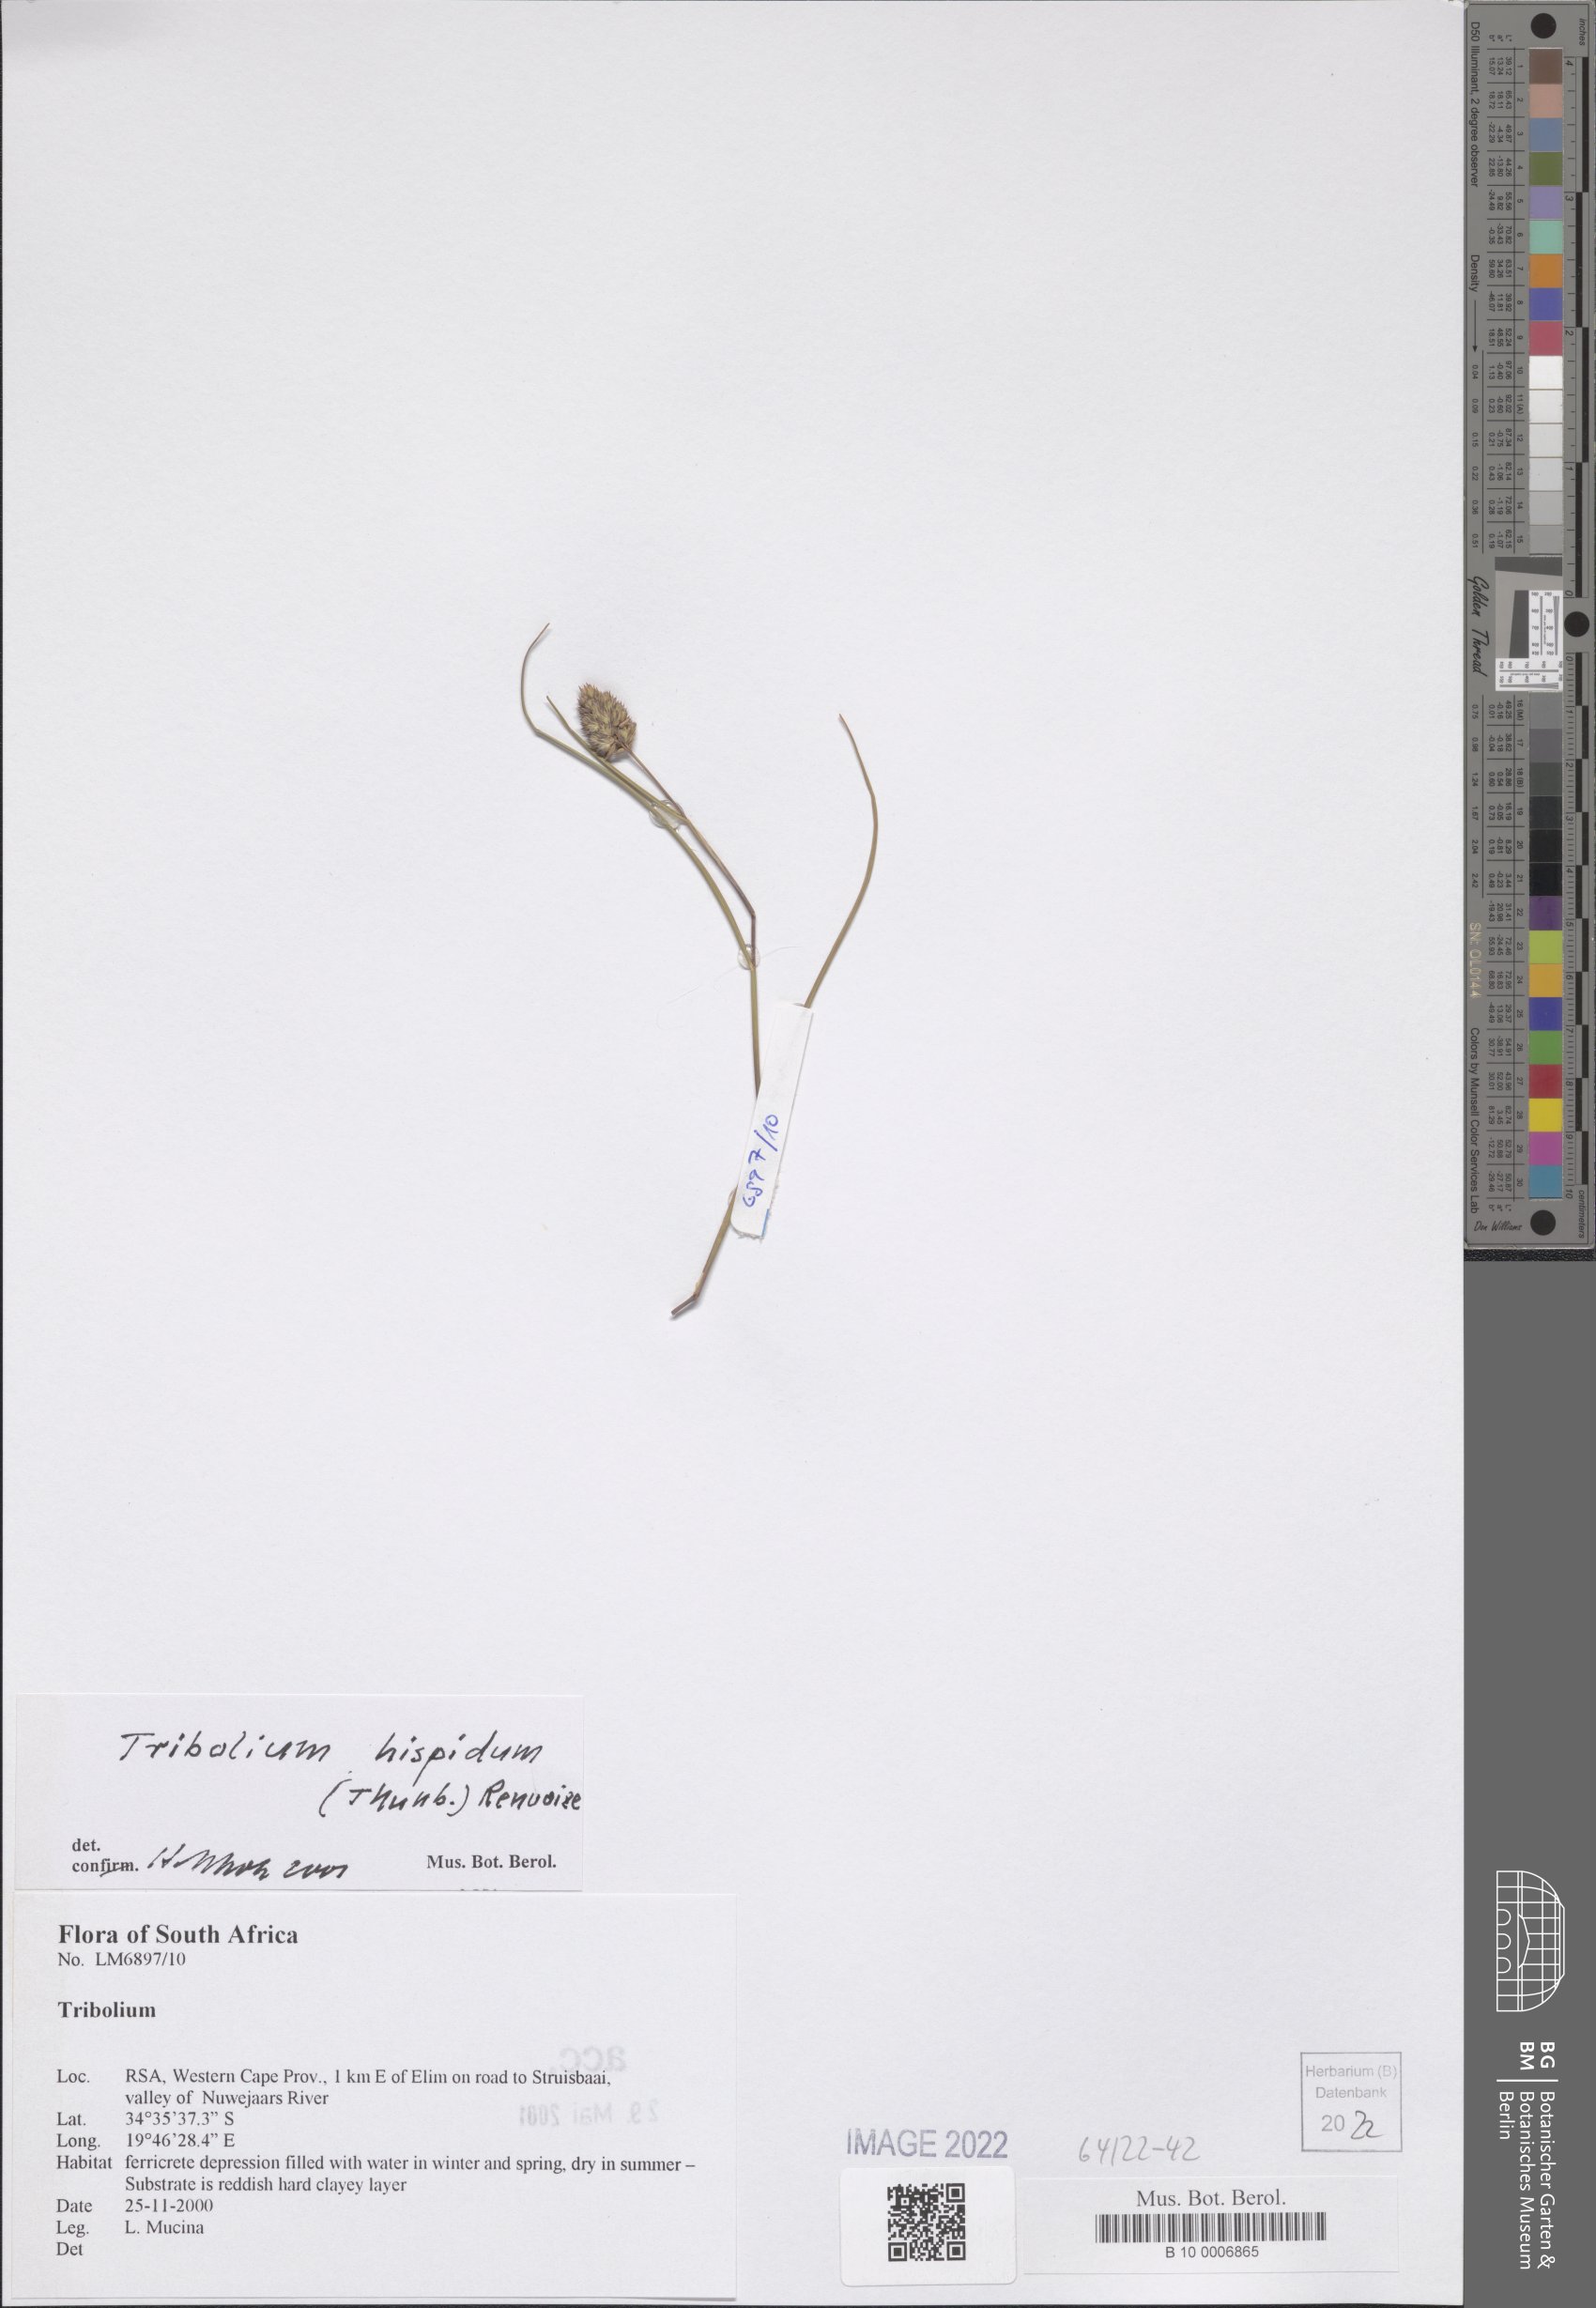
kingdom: Plantae
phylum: Tracheophyta
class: Liliopsida
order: Poales
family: Poaceae
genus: Tribolium
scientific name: Tribolium hispidum
